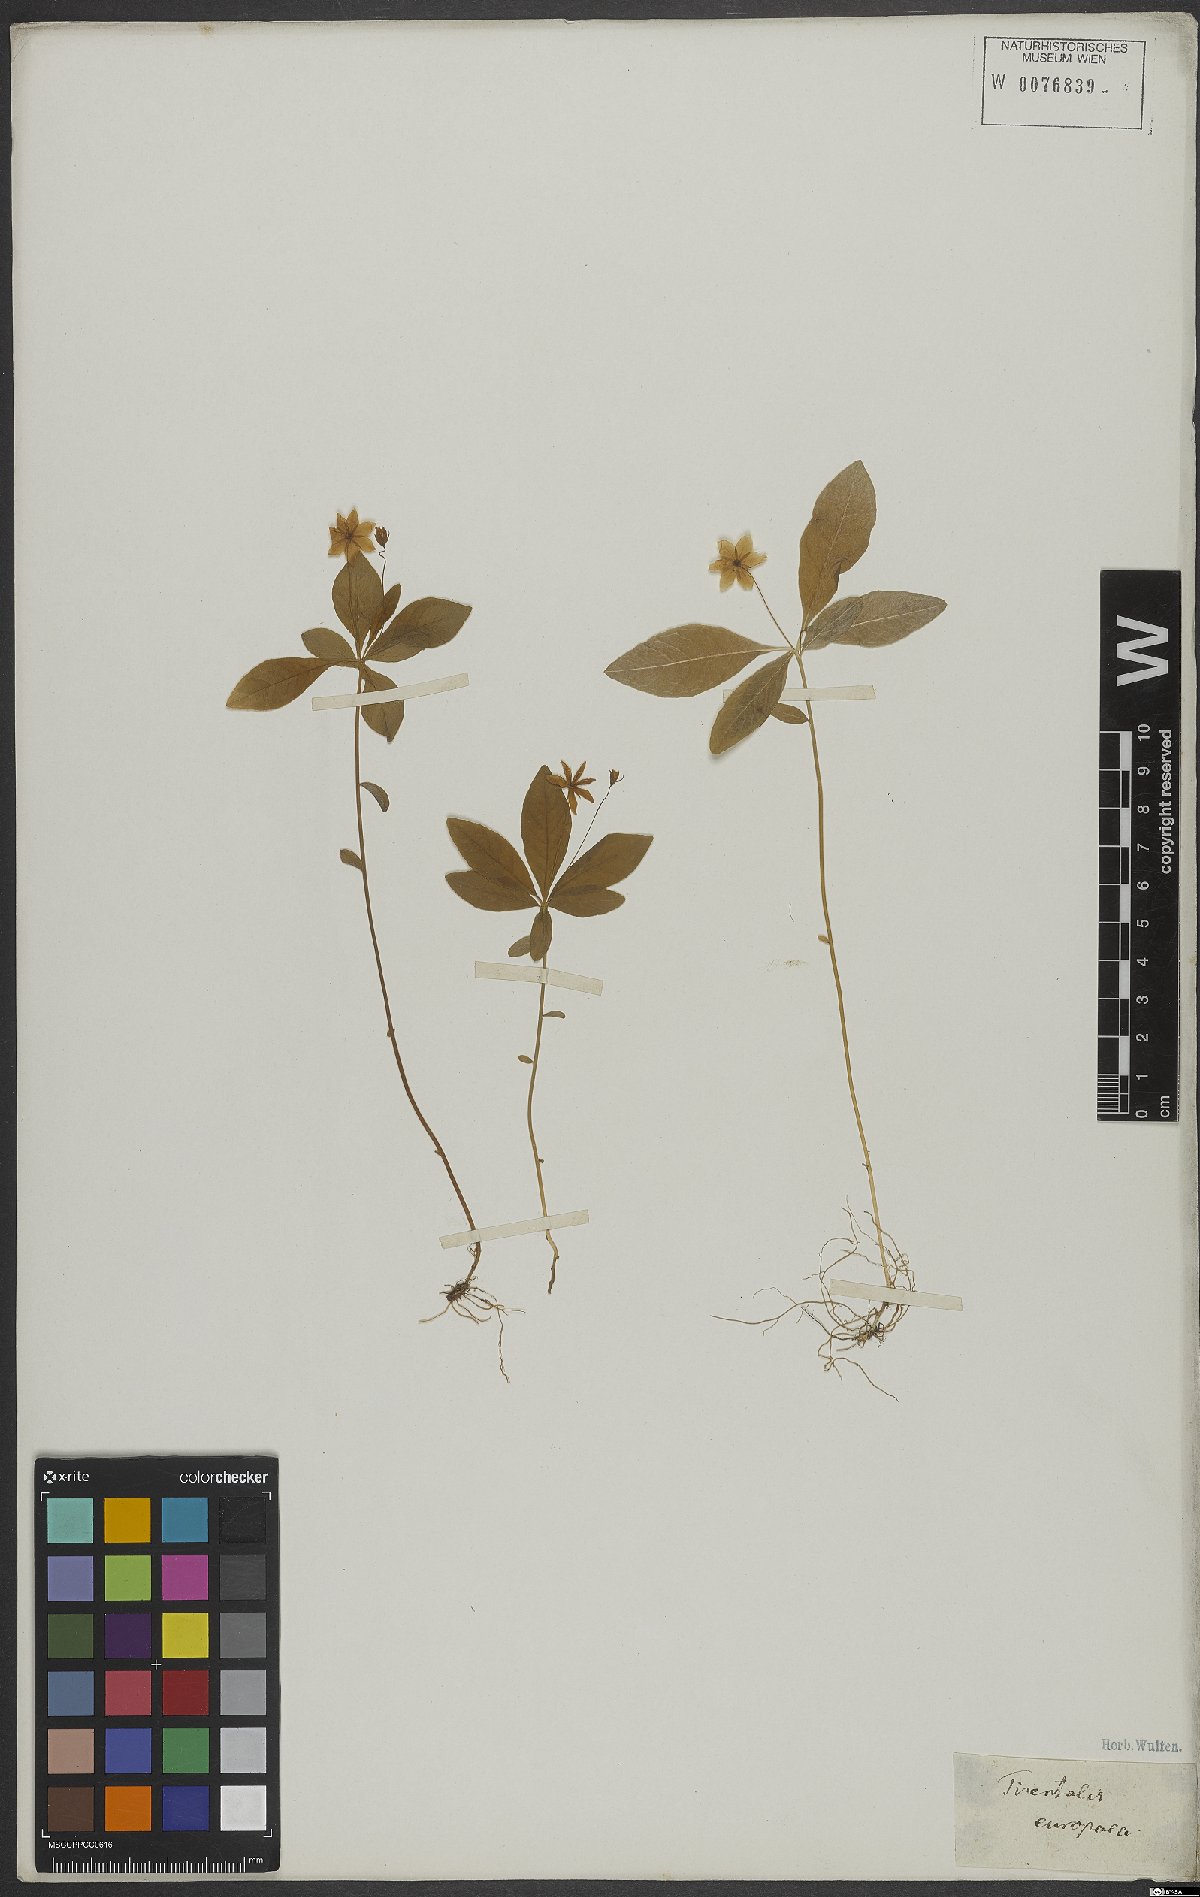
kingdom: Plantae
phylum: Tracheophyta
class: Magnoliopsida
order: Ericales
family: Primulaceae
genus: Lysimachia
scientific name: Lysimachia europaea
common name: Arctic starflower
